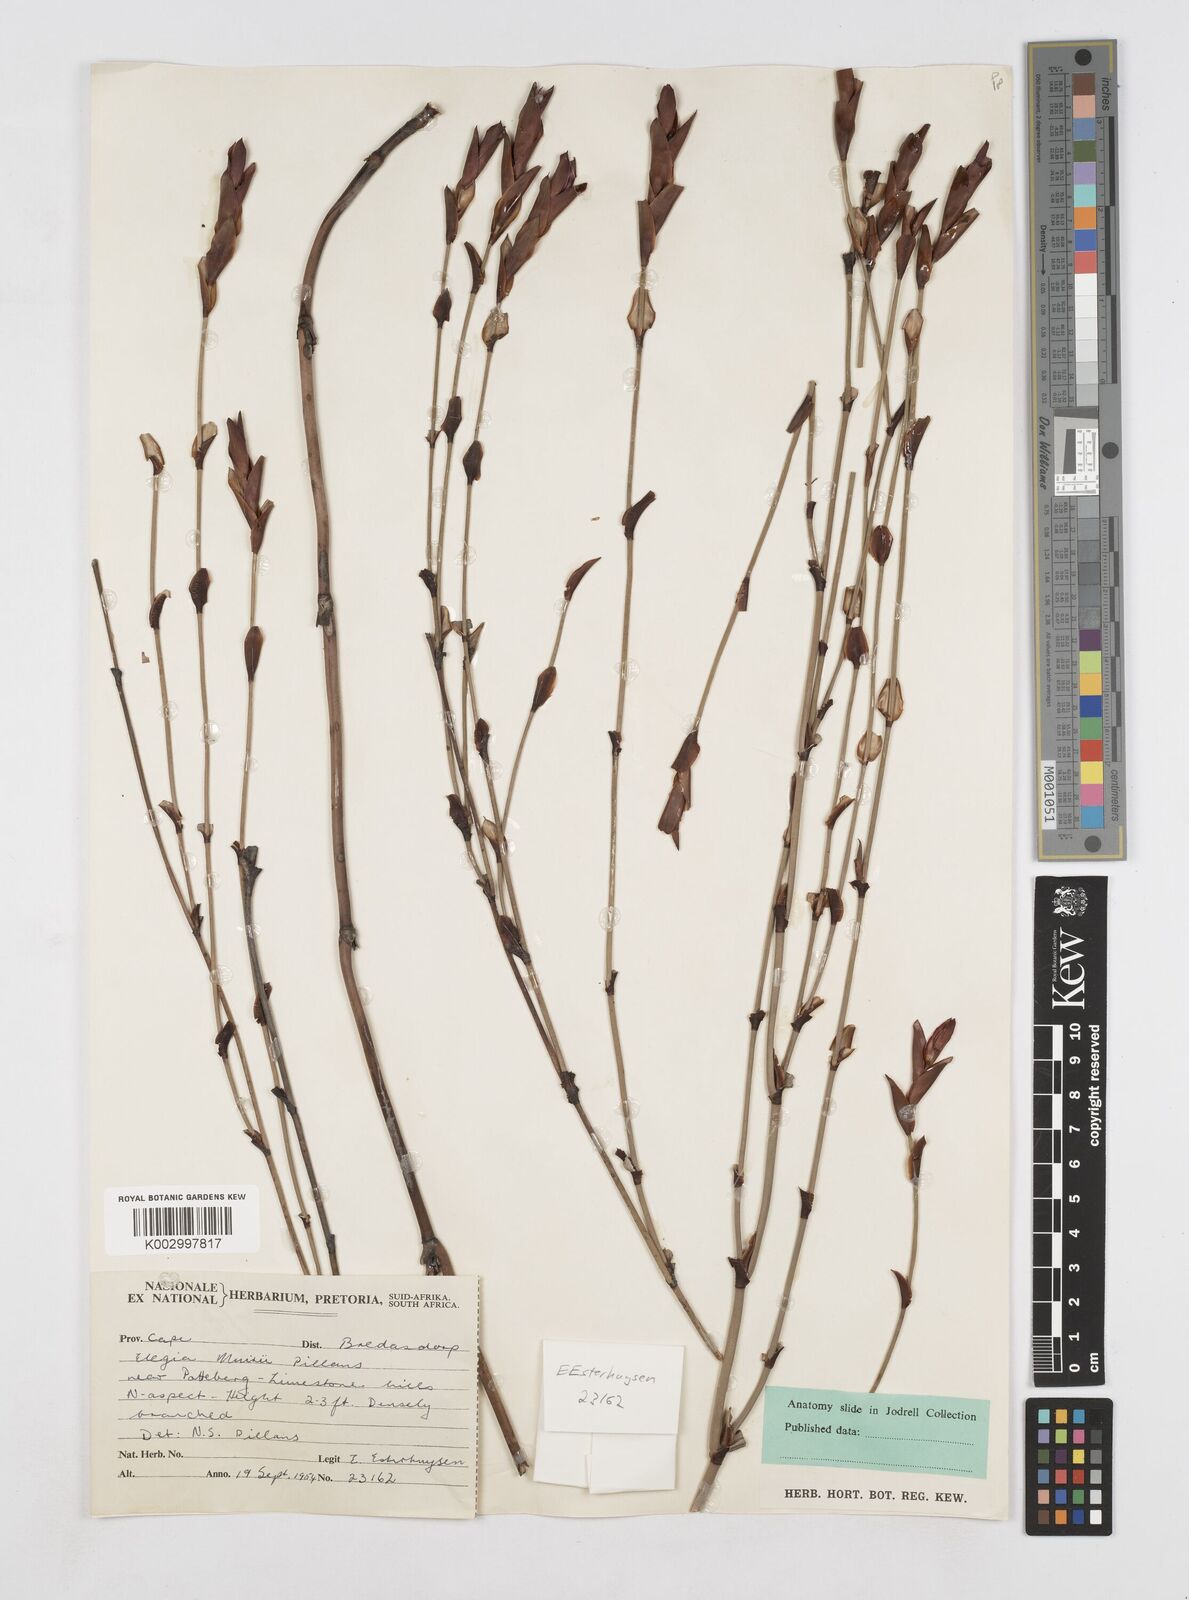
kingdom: Plantae
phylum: Tracheophyta
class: Liliopsida
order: Poales
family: Restionaceae
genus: Elegia
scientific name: Elegia muirii
